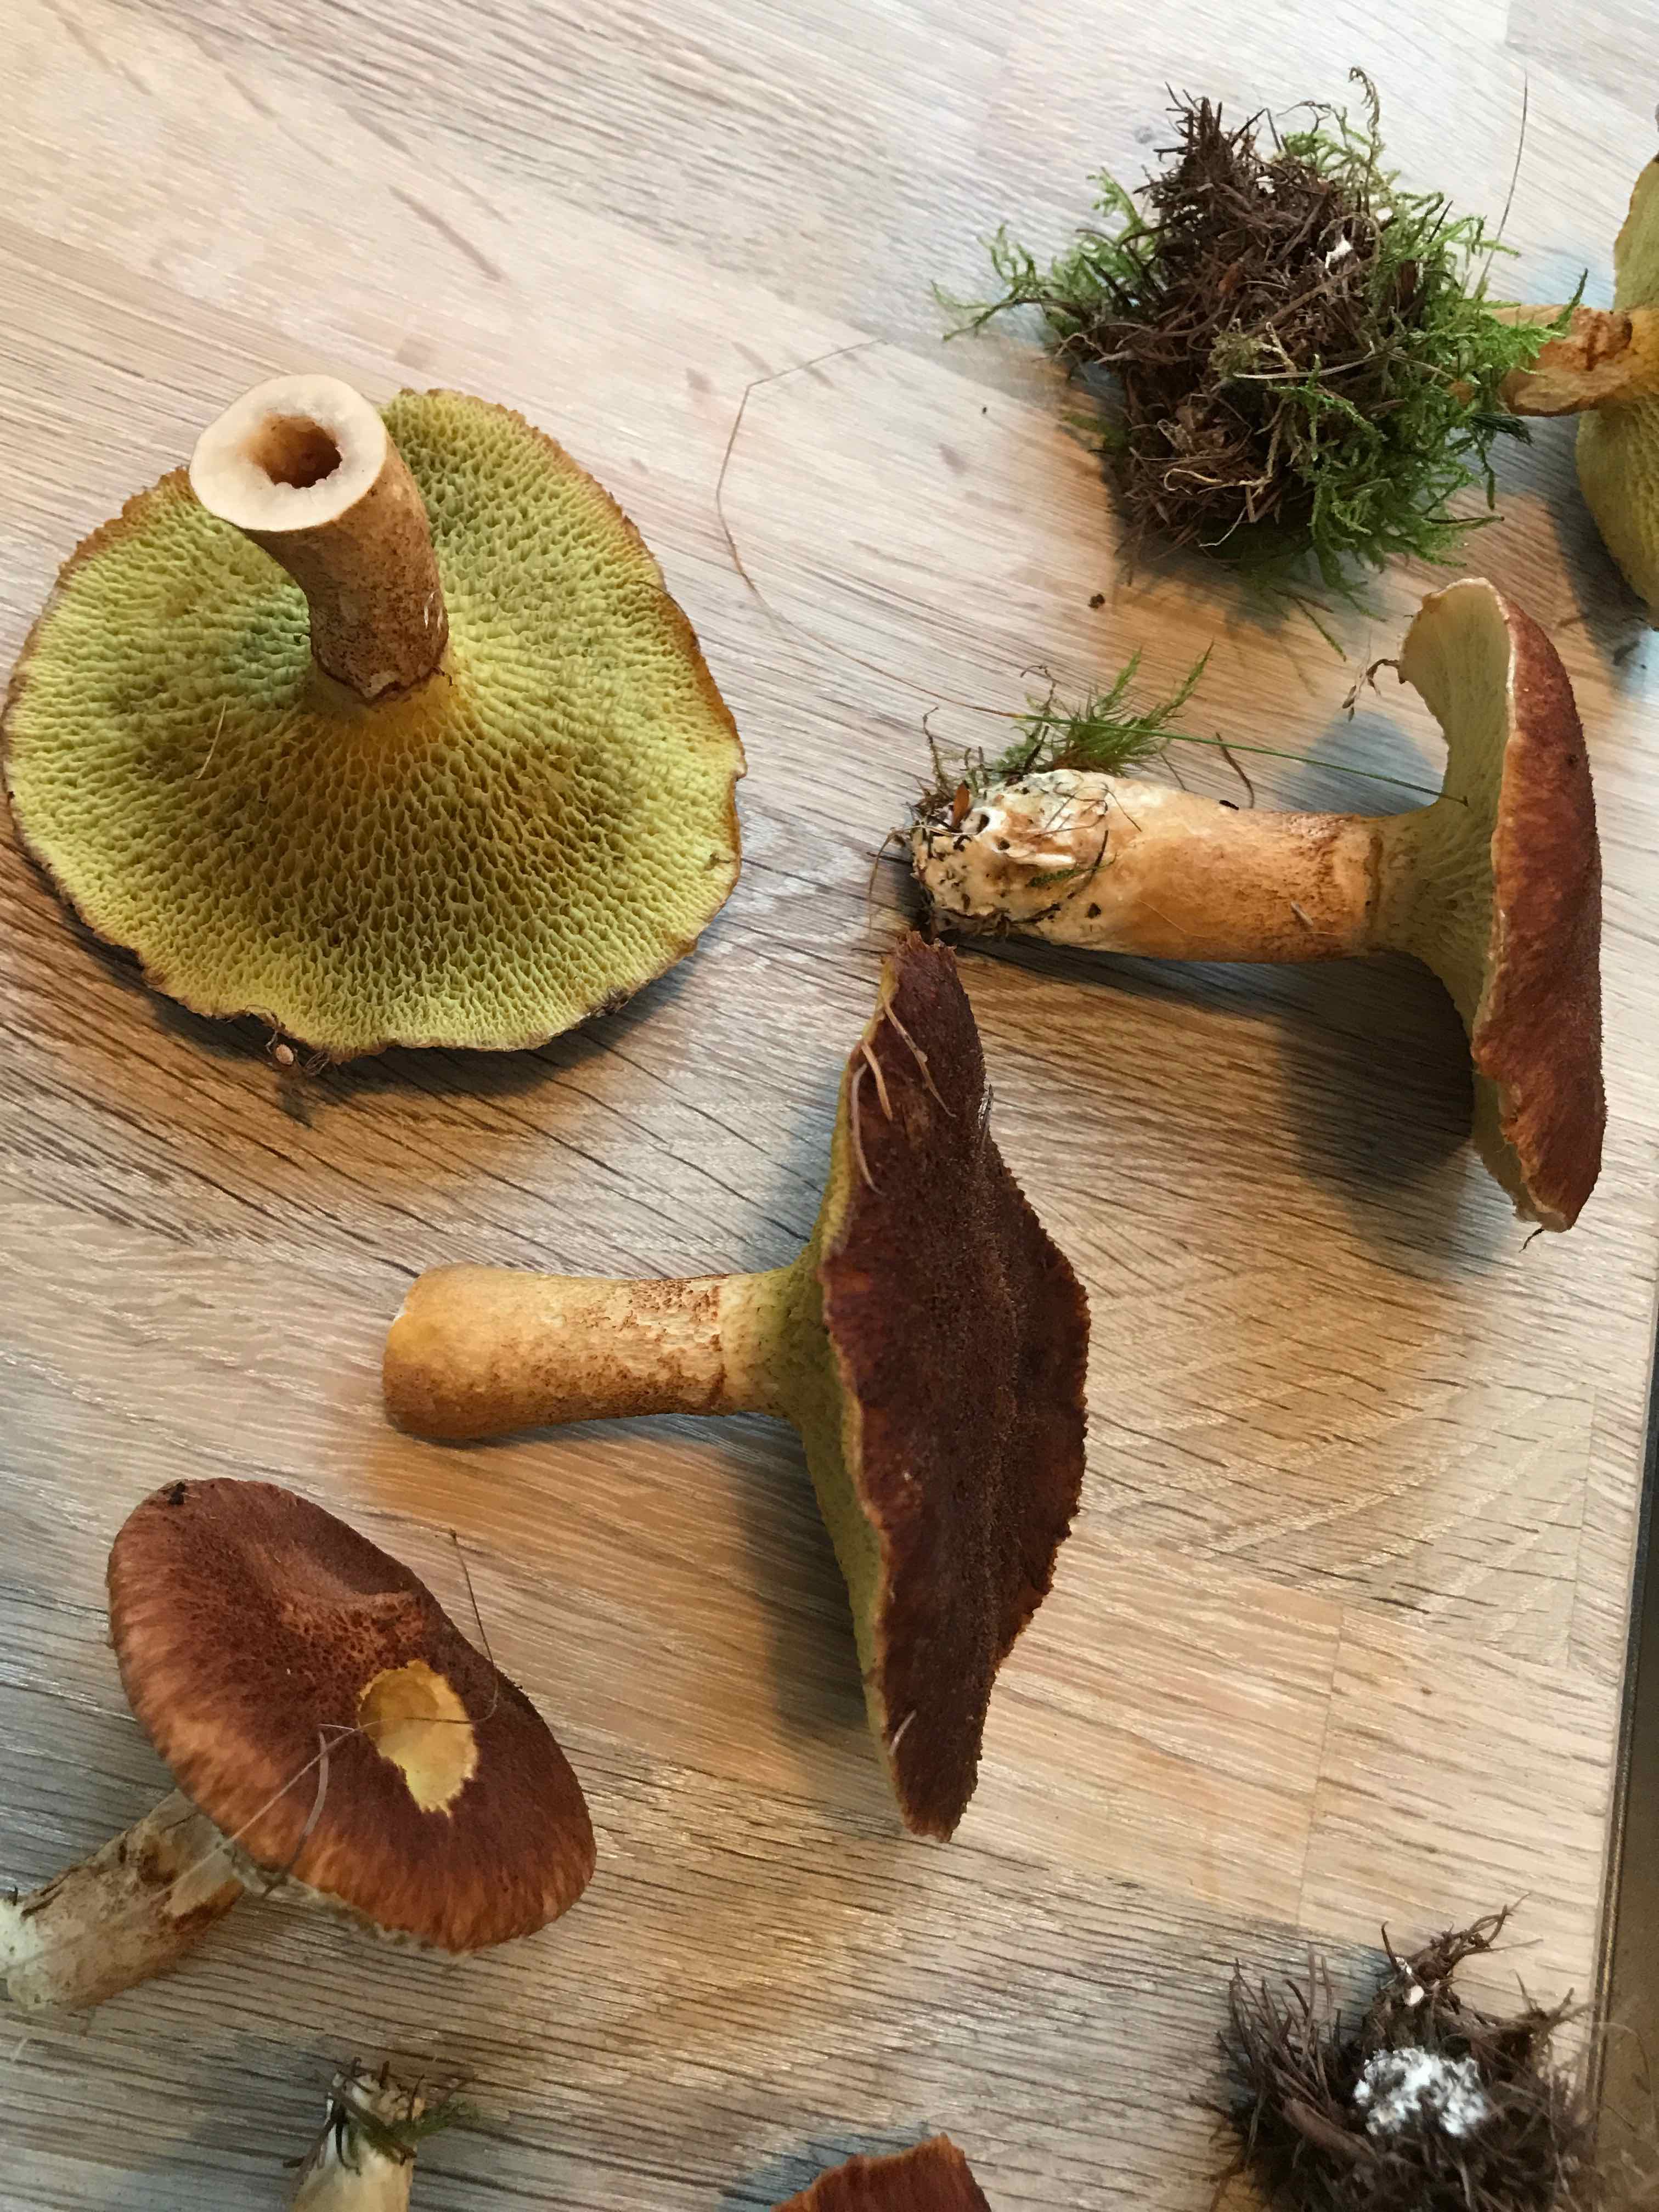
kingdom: Fungi
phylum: Basidiomycota
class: Agaricomycetes
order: Boletales
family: Suillaceae
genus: Suillus
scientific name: Suillus cavipes
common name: hulstokket slimrørhat
